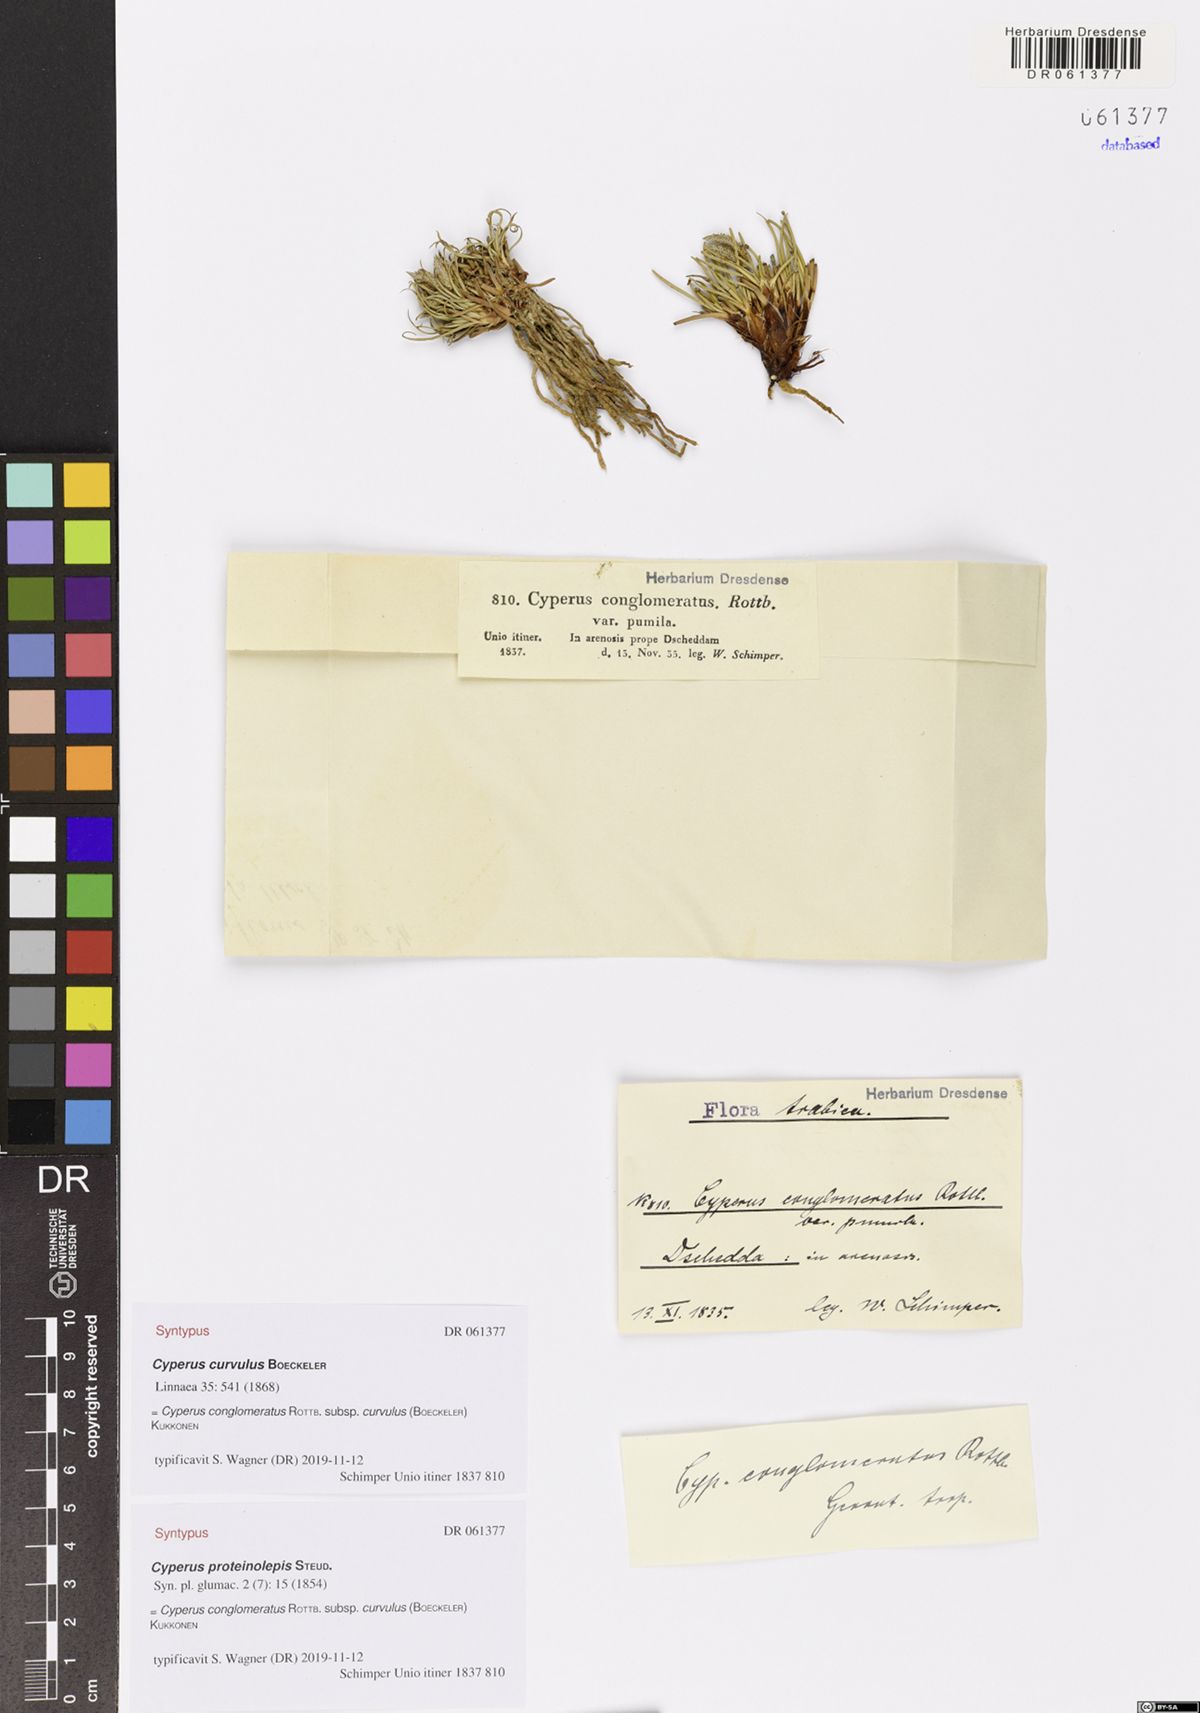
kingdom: Plantae
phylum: Tracheophyta
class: Liliopsida
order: Poales
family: Cyperaceae
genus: Cyperus
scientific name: Cyperus conglomeratus
